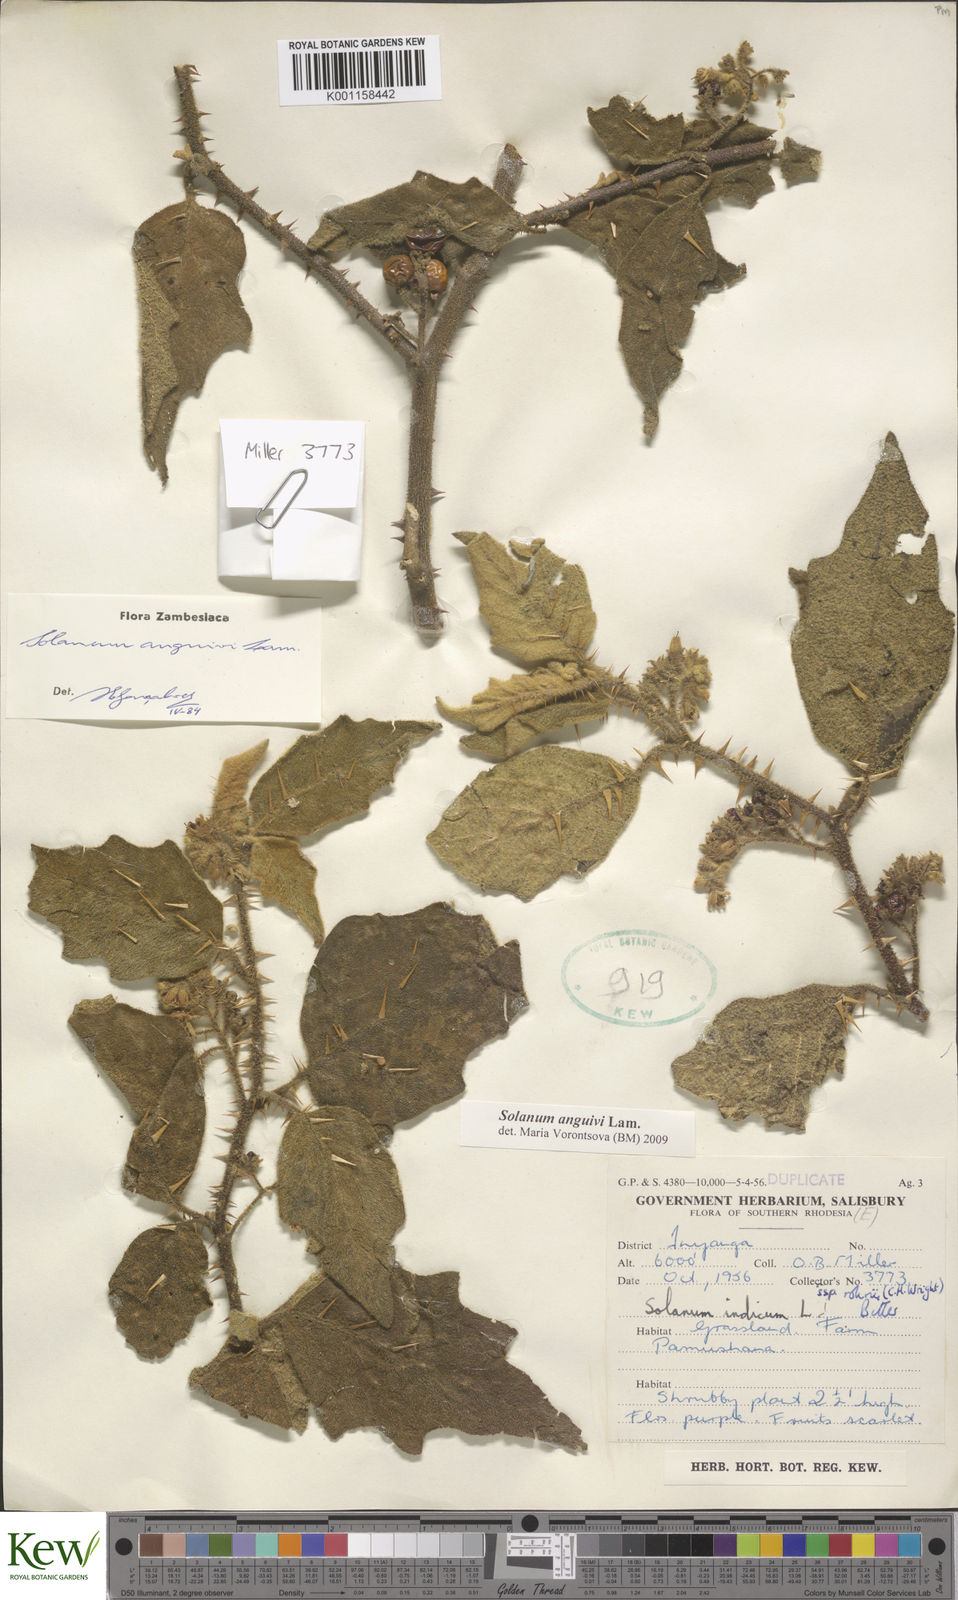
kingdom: Plantae
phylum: Tracheophyta
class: Magnoliopsida
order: Solanales
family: Solanaceae
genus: Solanum
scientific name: Solanum anguivi
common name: Forest bitterberry
